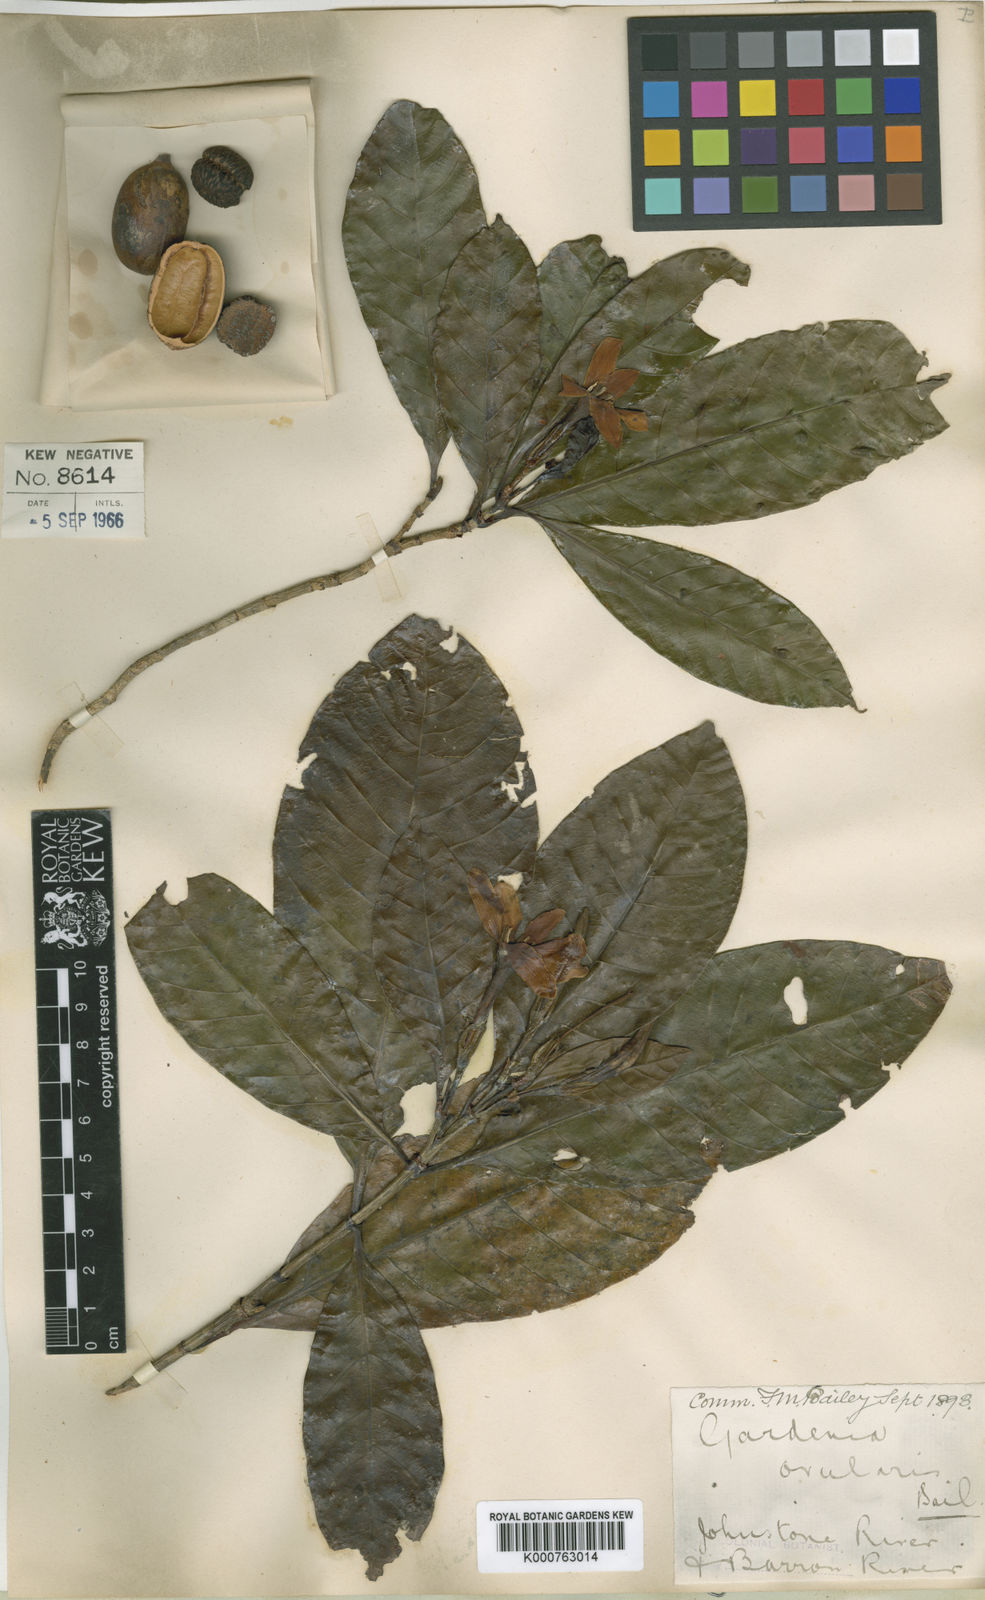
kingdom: Plantae
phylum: Tracheophyta
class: Magnoliopsida
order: Gentianales
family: Rubiaceae
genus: Gardenia
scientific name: Gardenia ovularis
